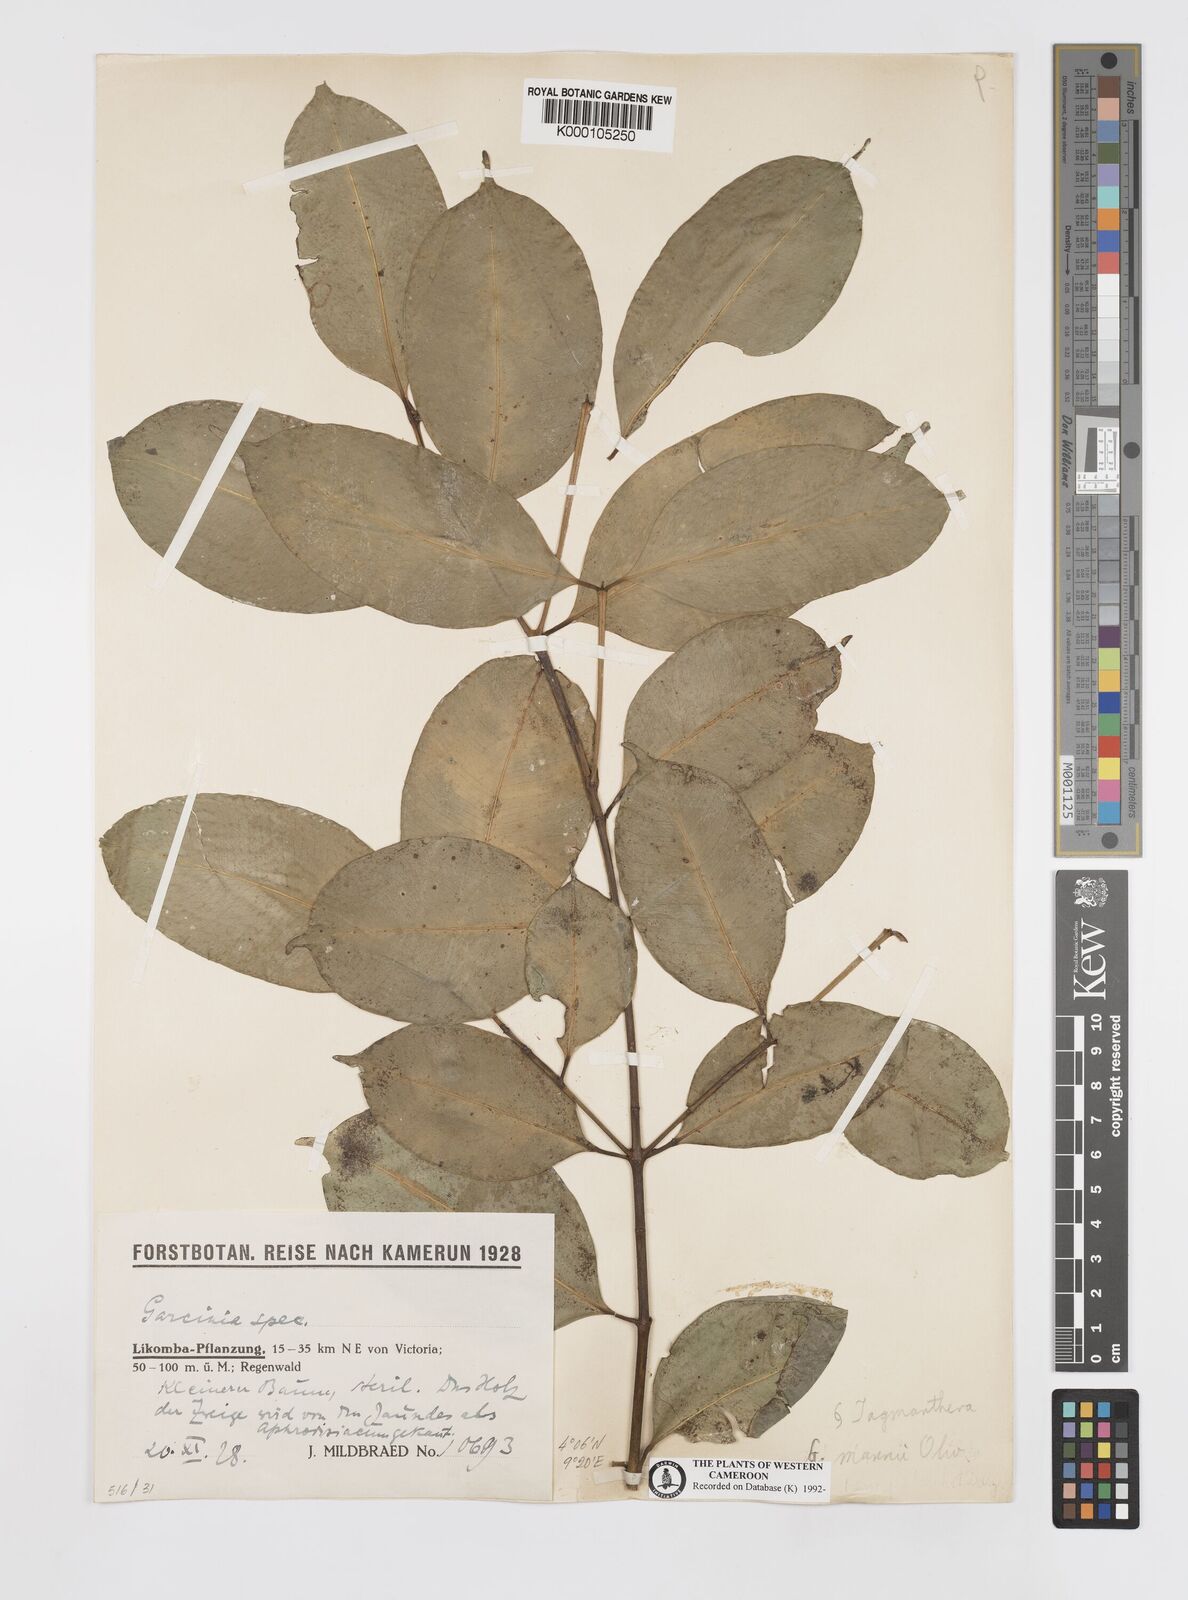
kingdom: Plantae
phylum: Tracheophyta
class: Magnoliopsida
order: Malpighiales
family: Clusiaceae
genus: Garcinia
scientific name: Garcinia mannii
